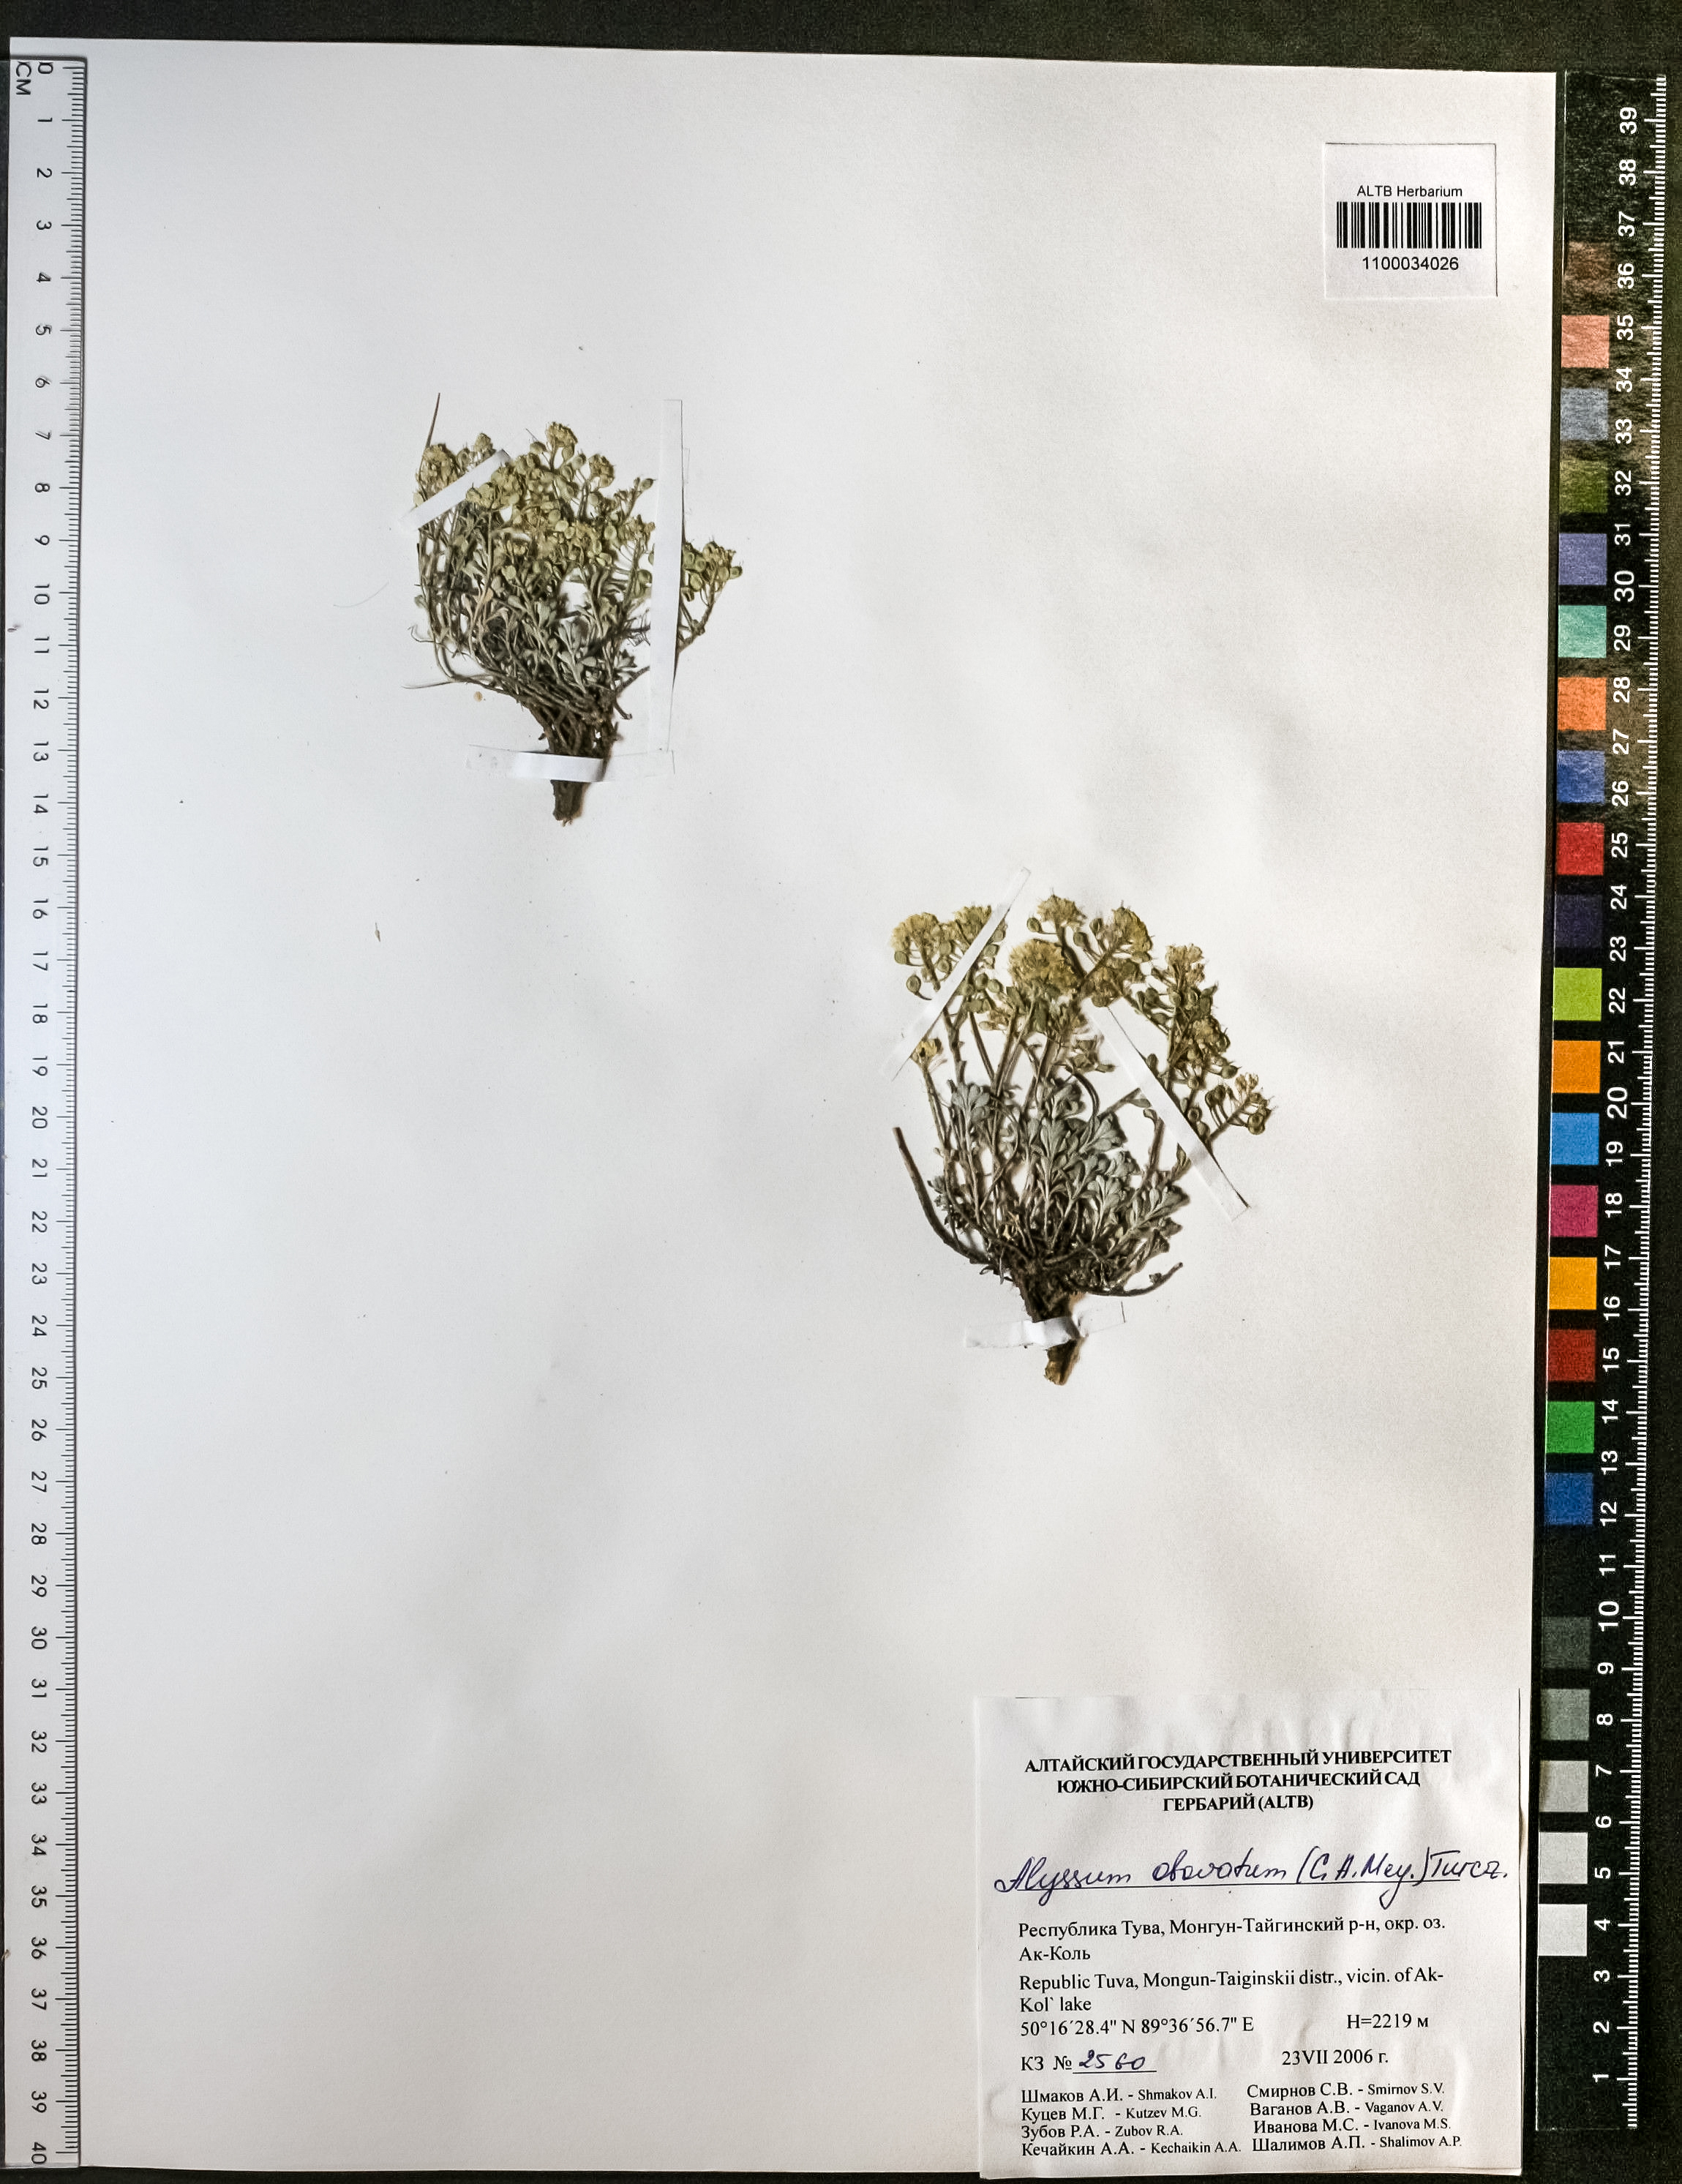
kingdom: Plantae
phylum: Tracheophyta
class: Magnoliopsida
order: Brassicales
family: Brassicaceae
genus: Odontarrhena
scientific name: Odontarrhena obovata
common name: American alyssum
